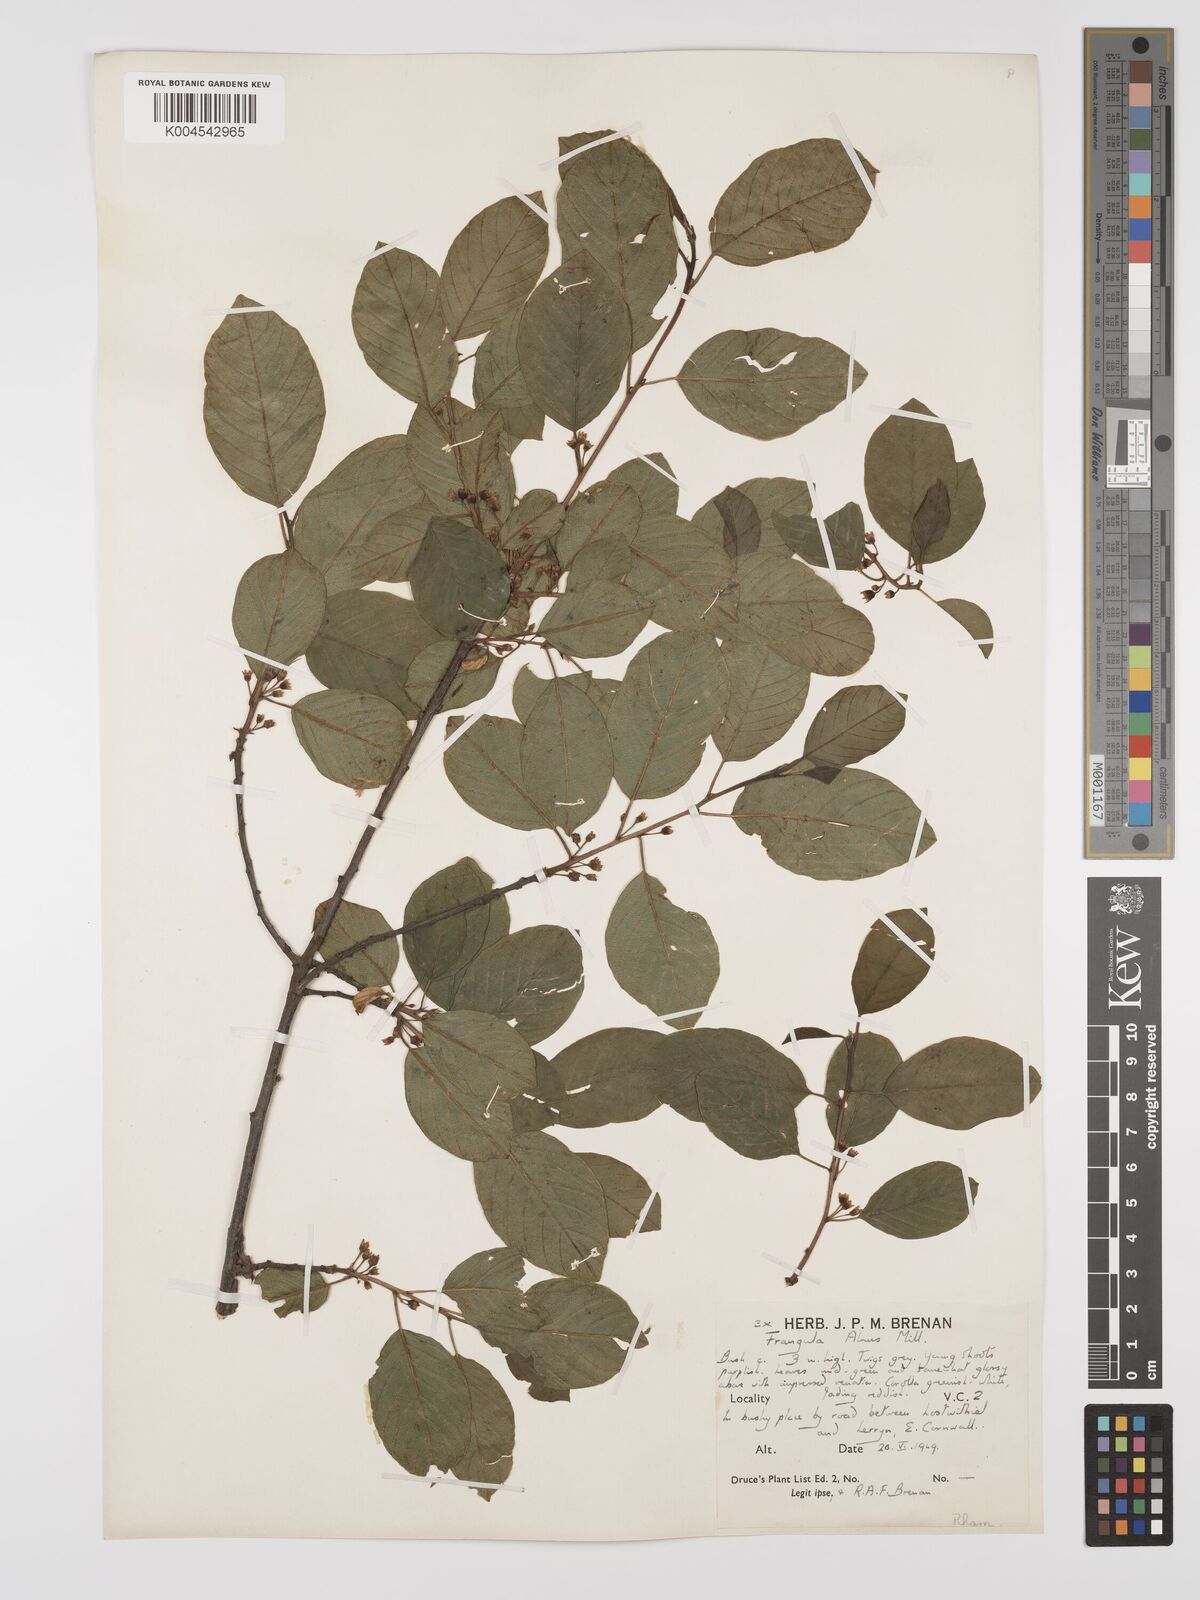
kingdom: Plantae
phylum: Tracheophyta
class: Magnoliopsida
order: Rosales
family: Rhamnaceae
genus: Frangula
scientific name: Frangula alnus
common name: Alder buckthorn
